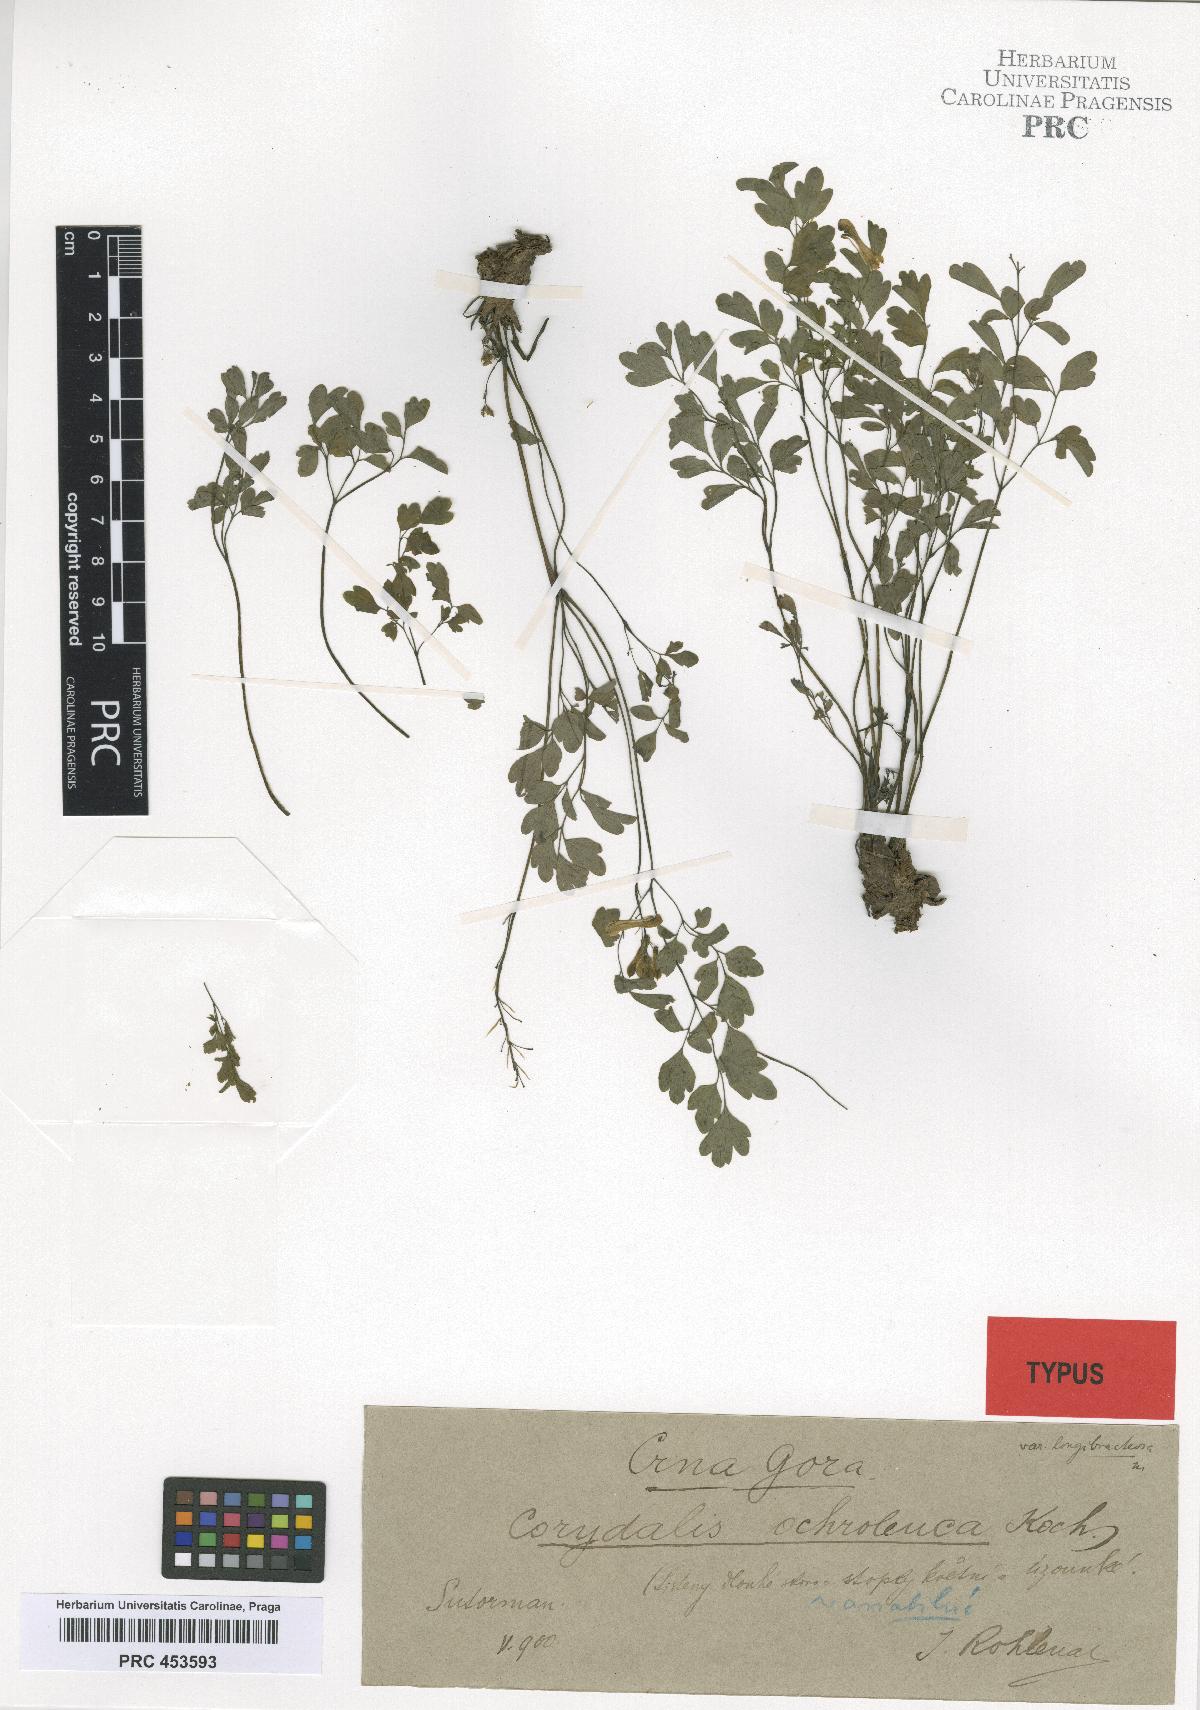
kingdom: Plantae
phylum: Tracheophyta
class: Magnoliopsida
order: Ranunculales
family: Papaveraceae
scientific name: Papaveraceae
